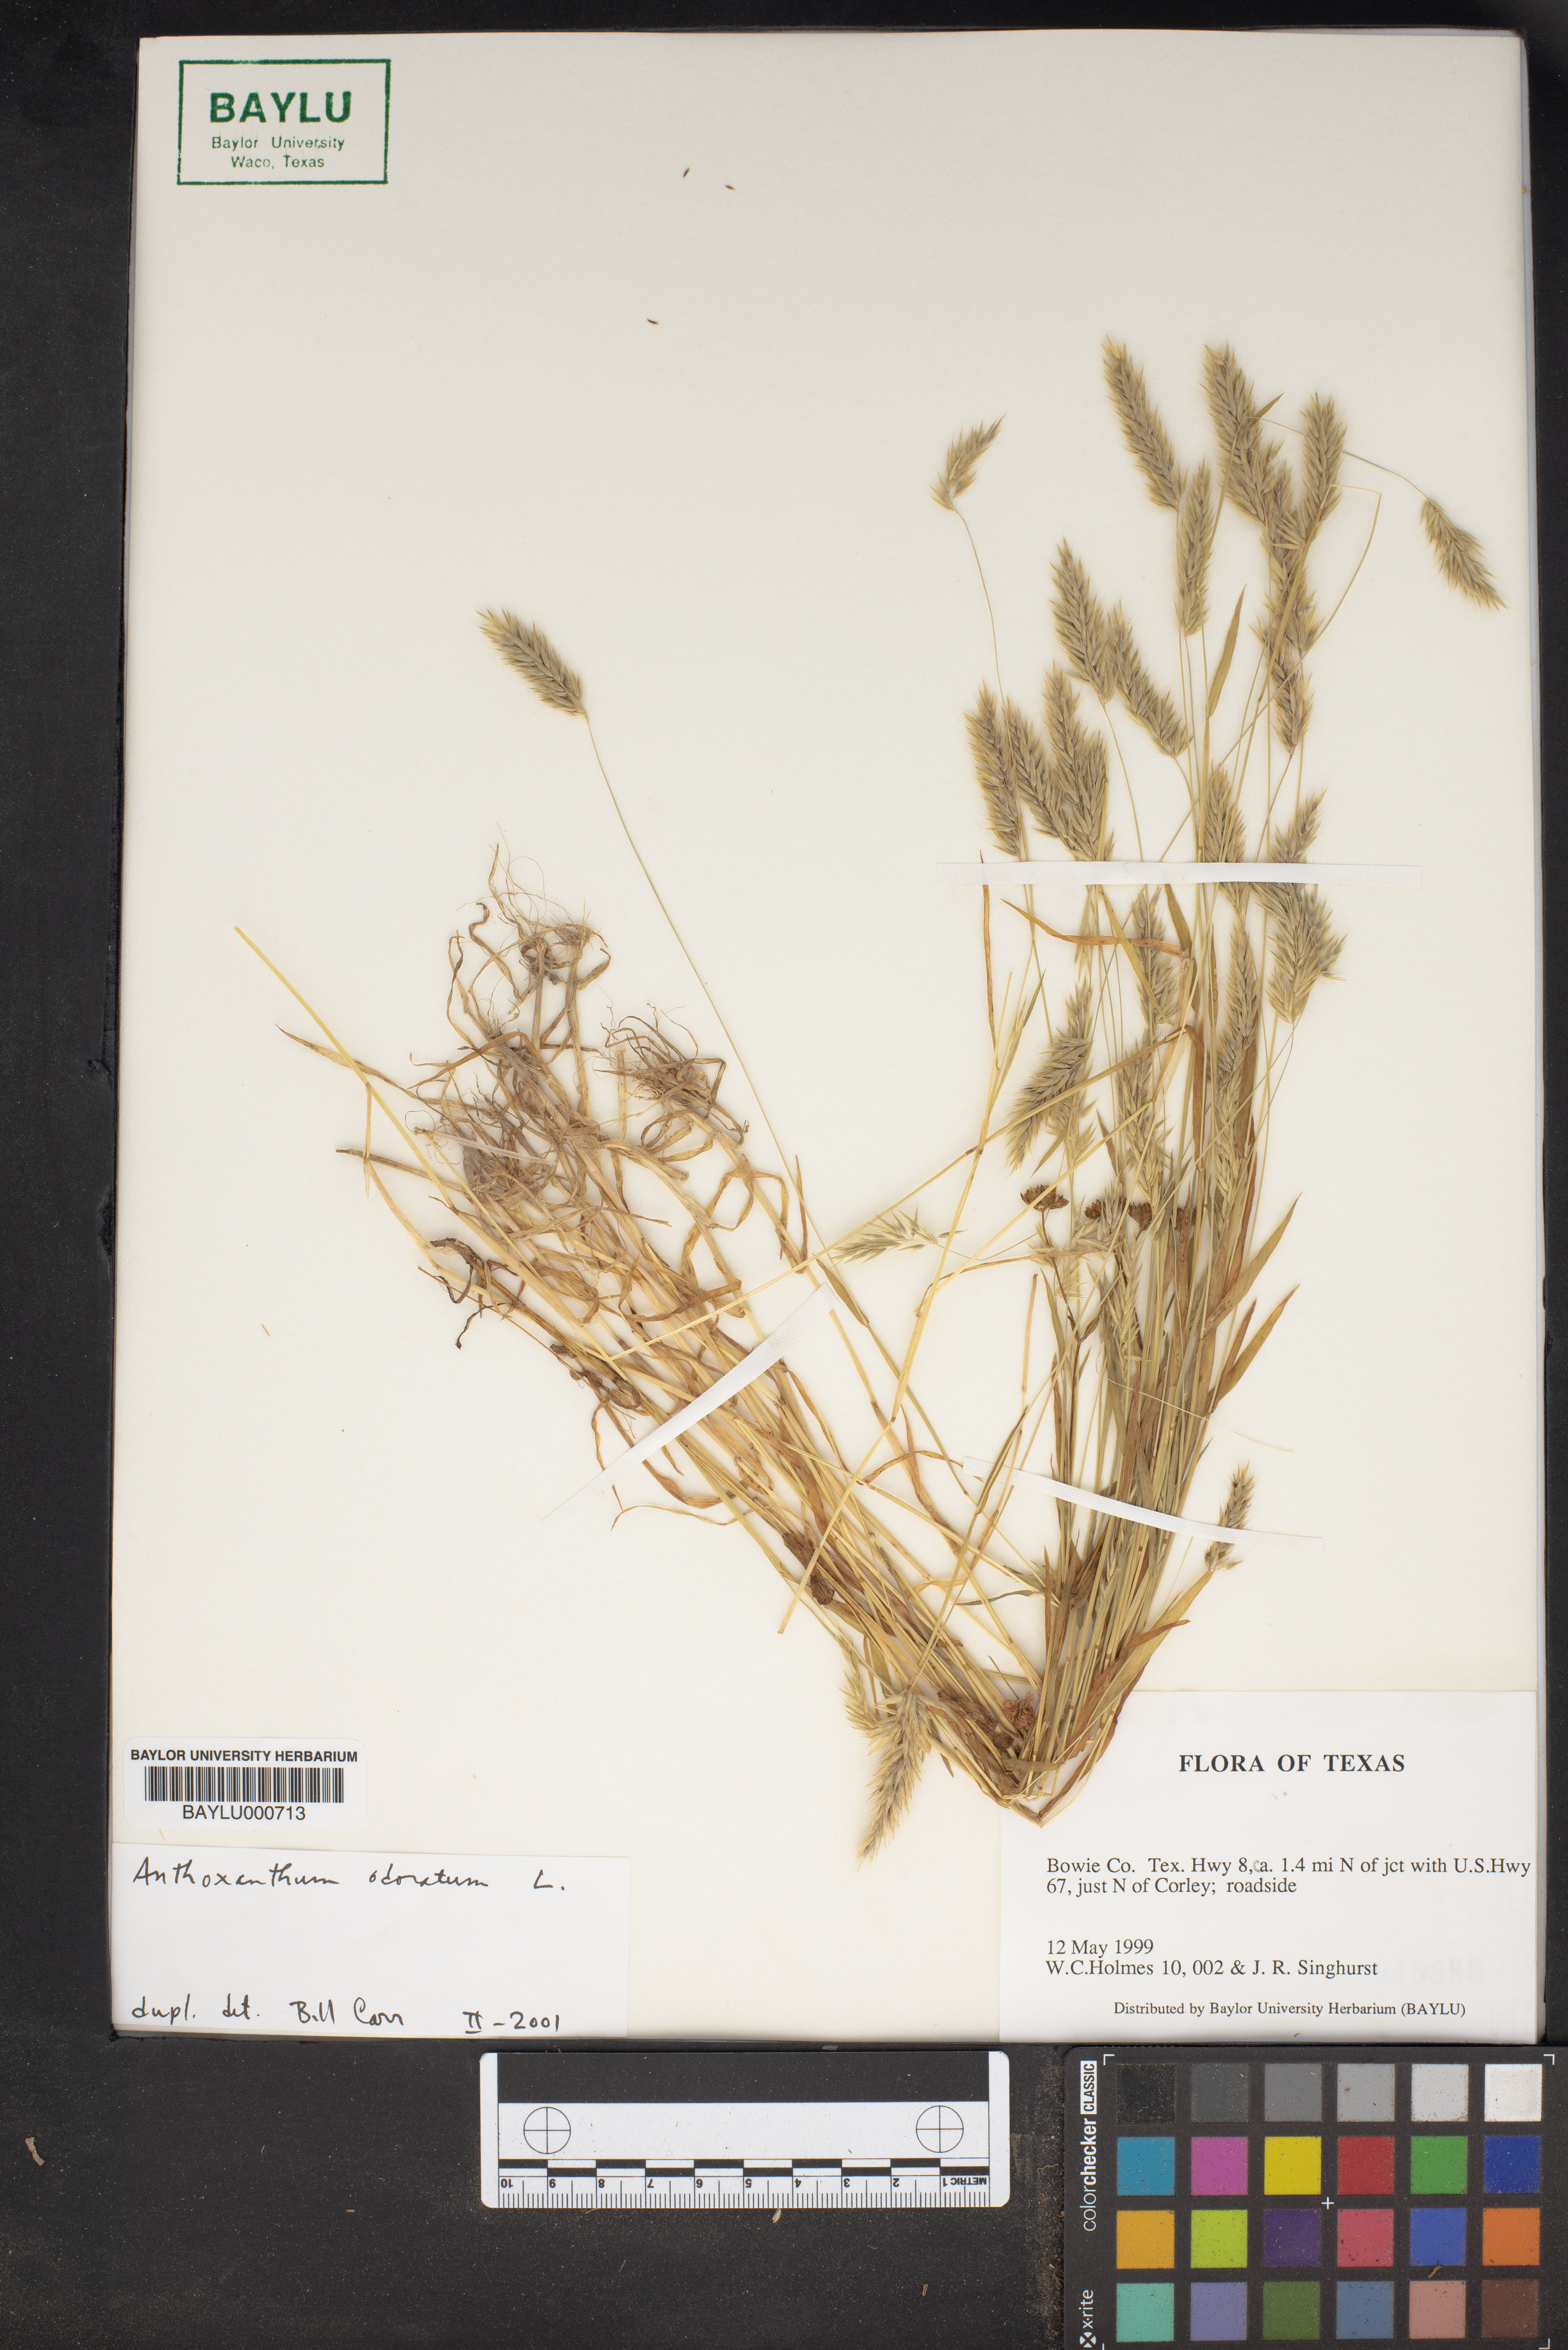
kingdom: Plantae
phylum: Tracheophyta
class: Liliopsida
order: Poales
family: Poaceae
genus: Anthoxanthum
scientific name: Anthoxanthum odoratum
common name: Sweet vernalgrass
